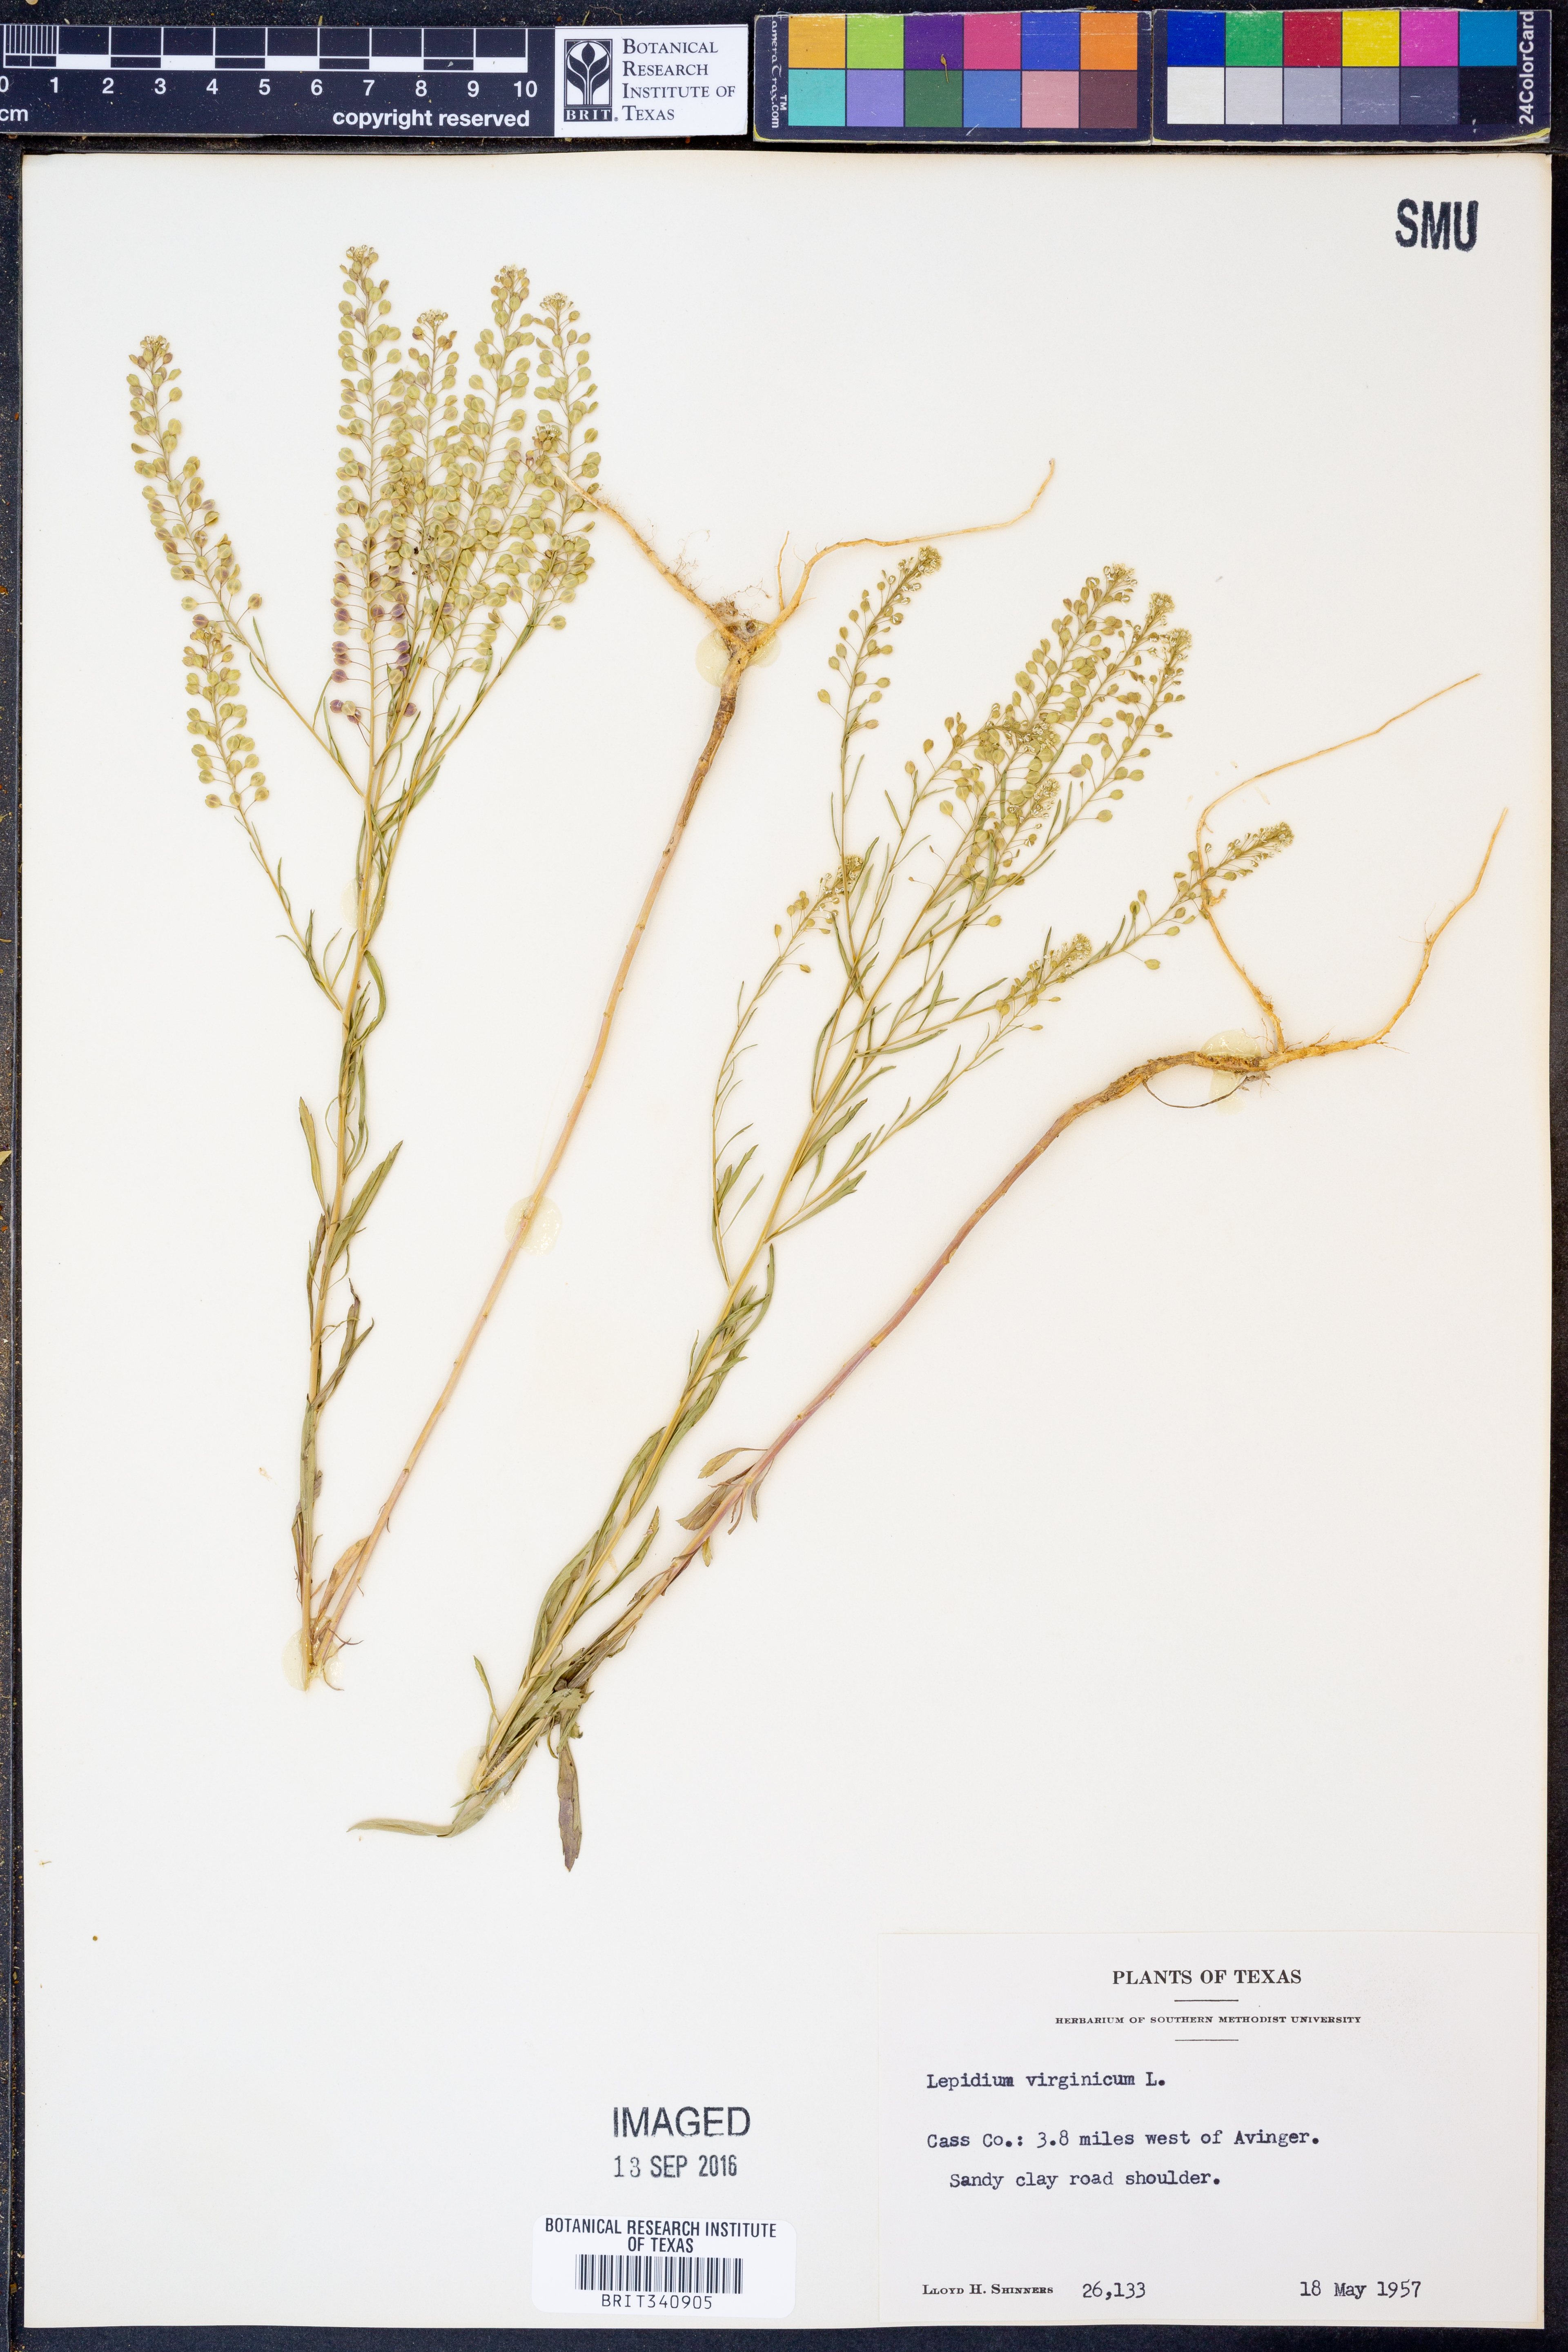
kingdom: Plantae
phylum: Tracheophyta
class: Magnoliopsida
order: Brassicales
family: Brassicaceae
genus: Lepidium
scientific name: Lepidium virginicum
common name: Least pepperwort
